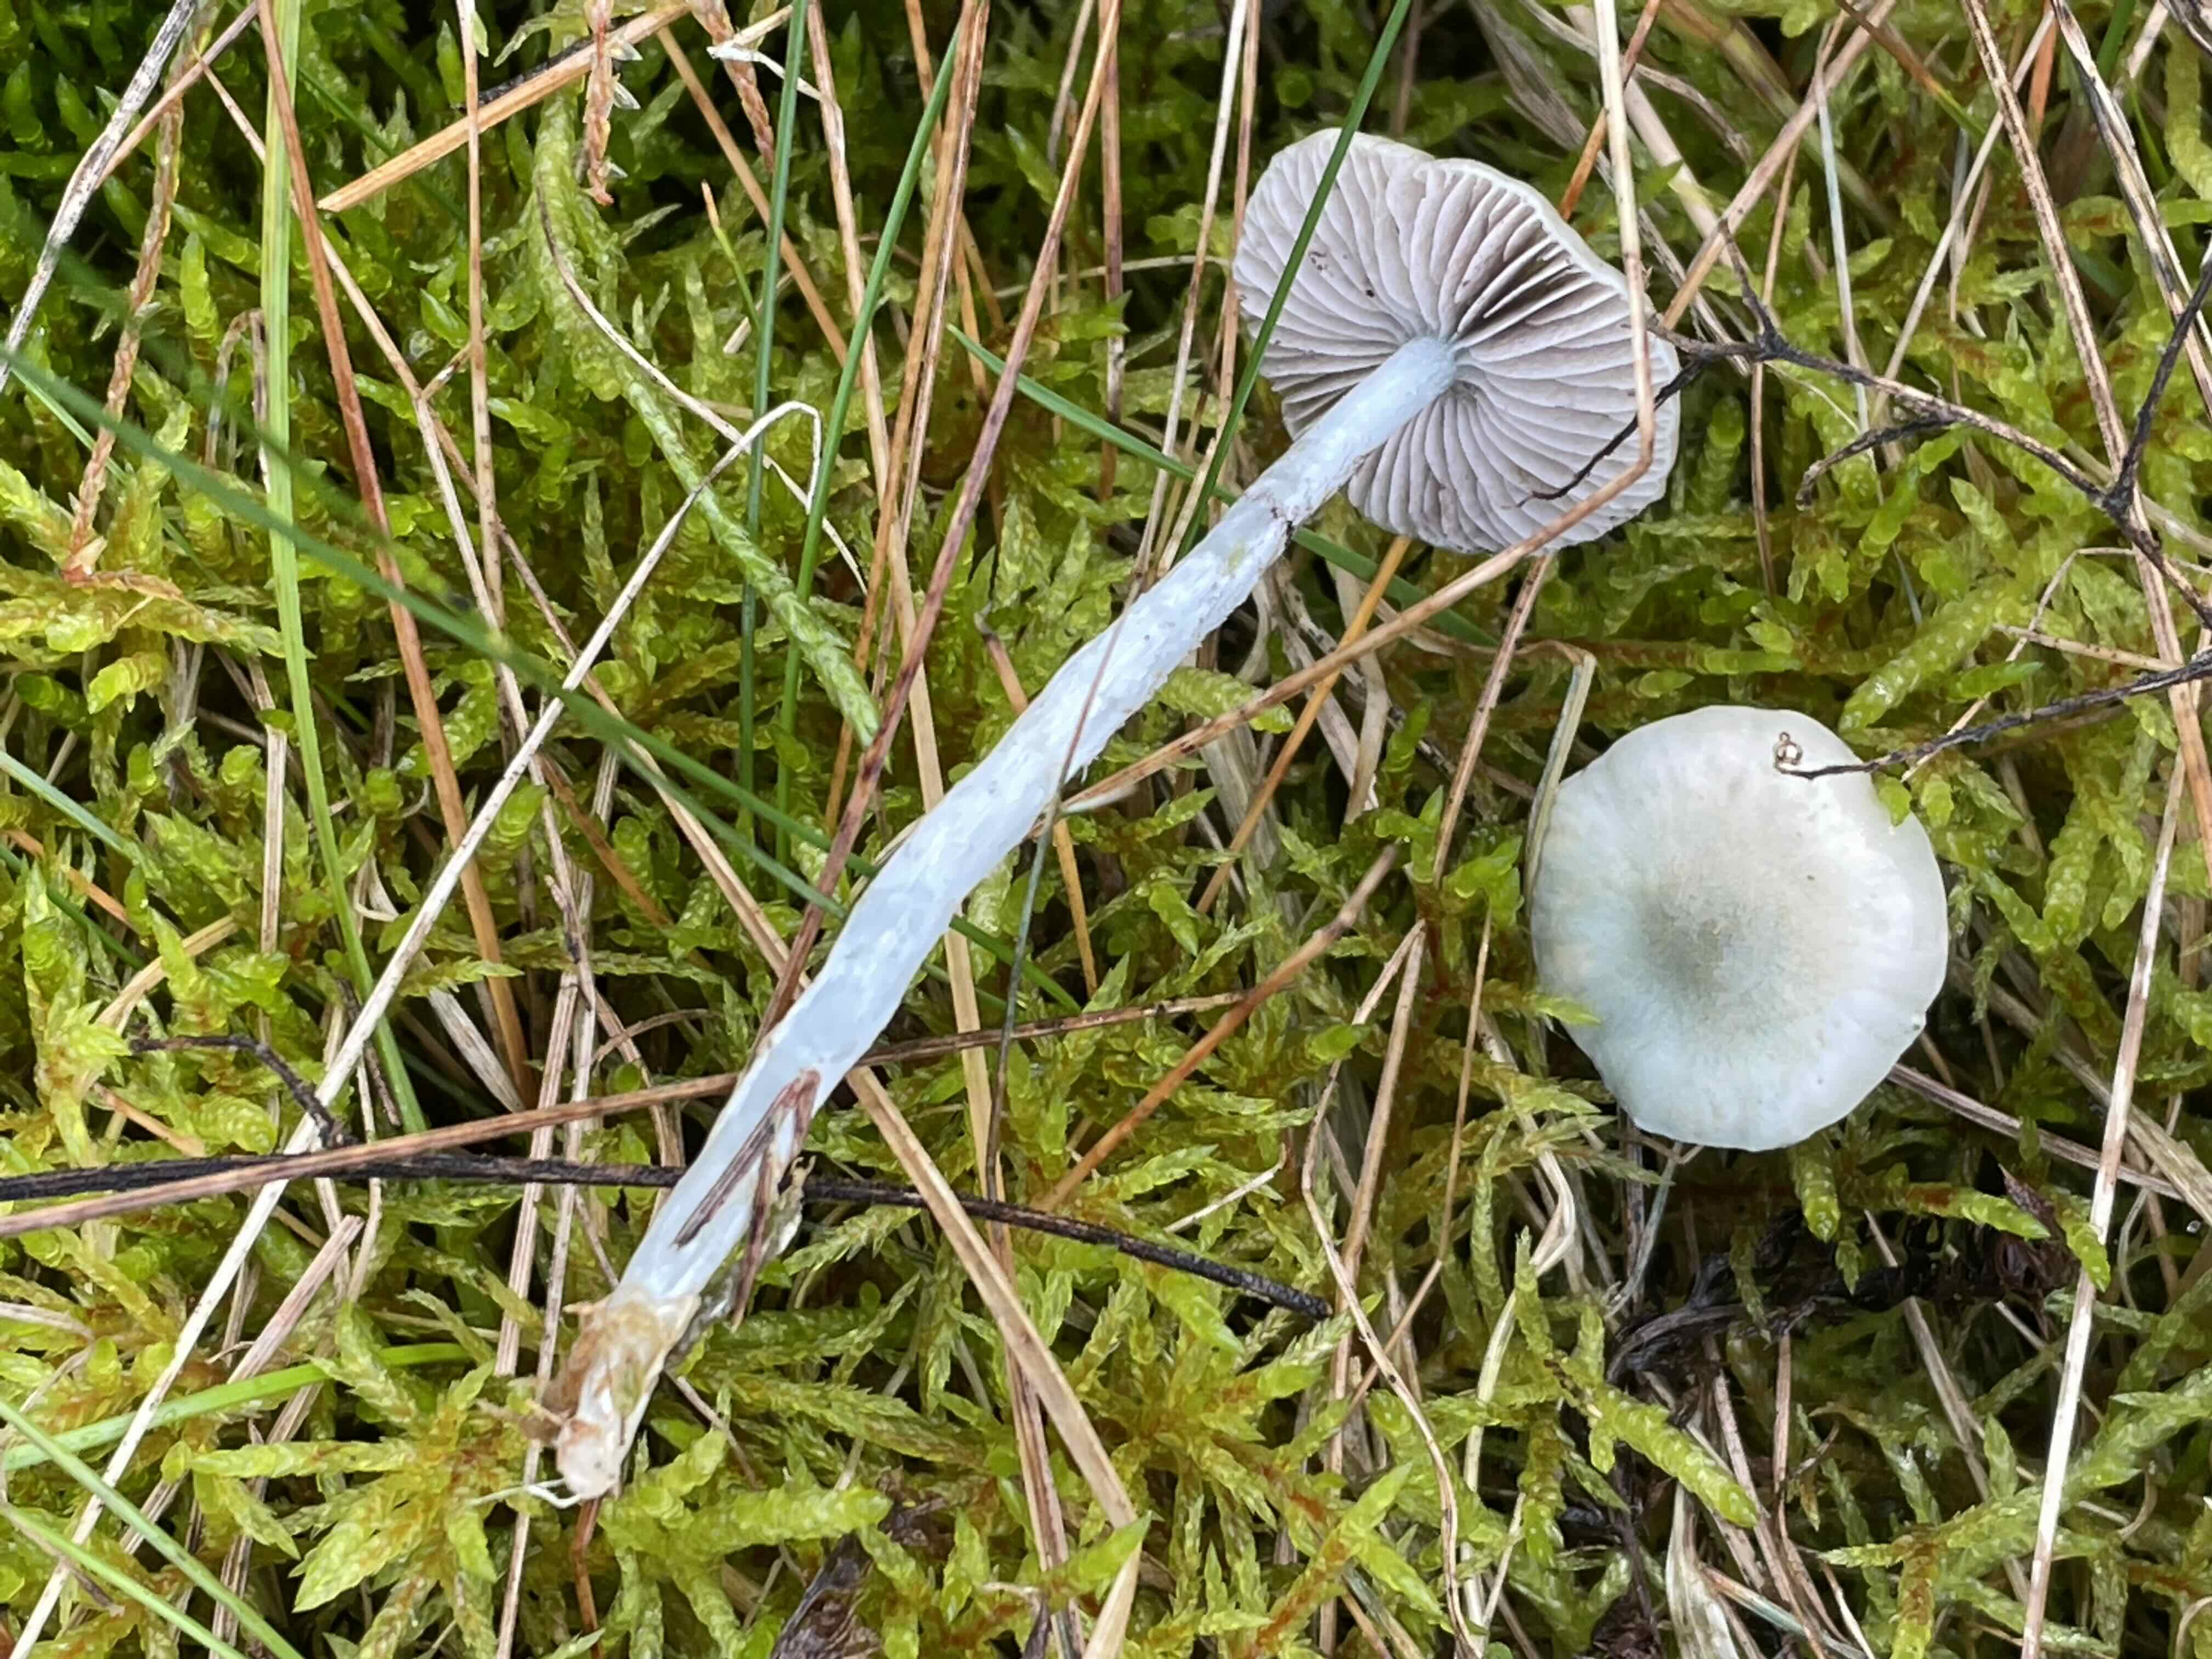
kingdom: Fungi
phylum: Basidiomycota
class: Agaricomycetes
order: Agaricales
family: Strophariaceae
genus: Stropharia
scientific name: Stropharia pseudocyanea
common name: blegblå bredblad
